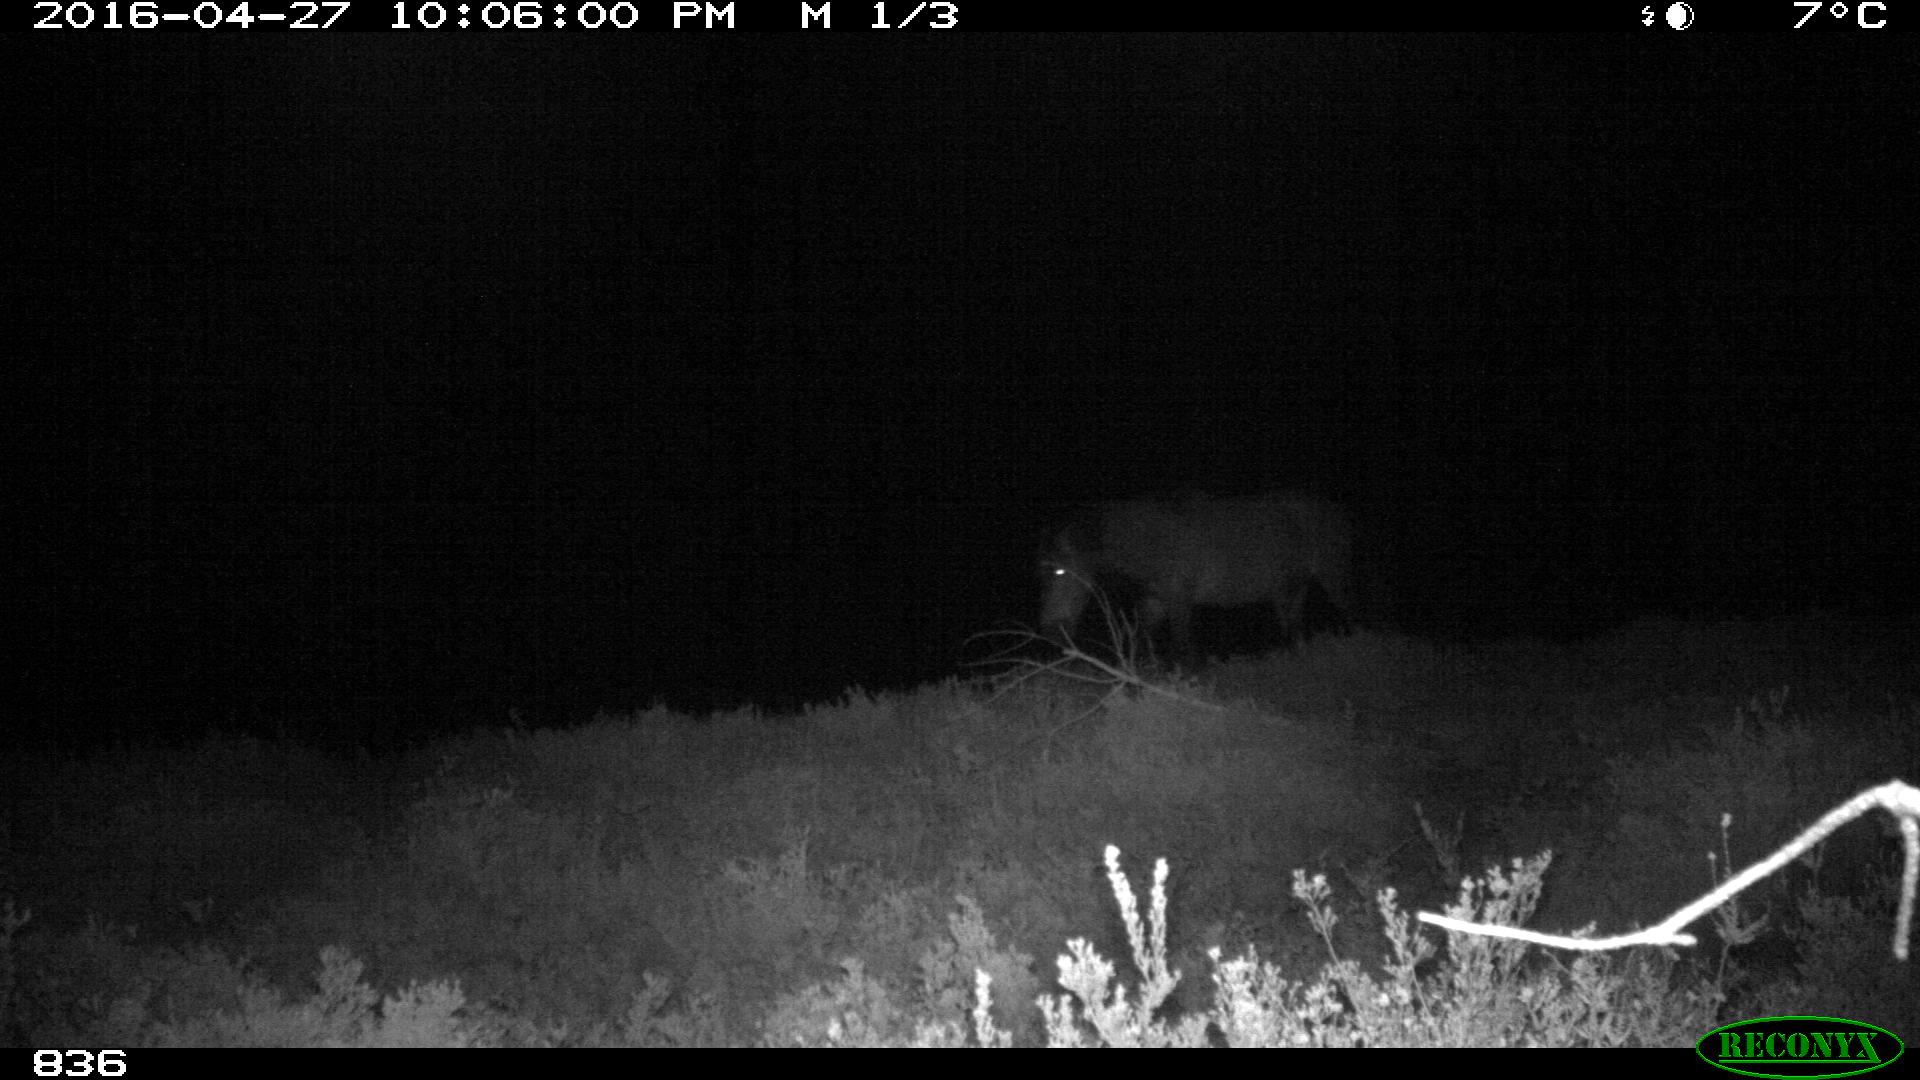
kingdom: Animalia
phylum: Chordata
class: Mammalia
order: Perissodactyla
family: Equidae
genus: Equus
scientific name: Equus caballus
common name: Horse
